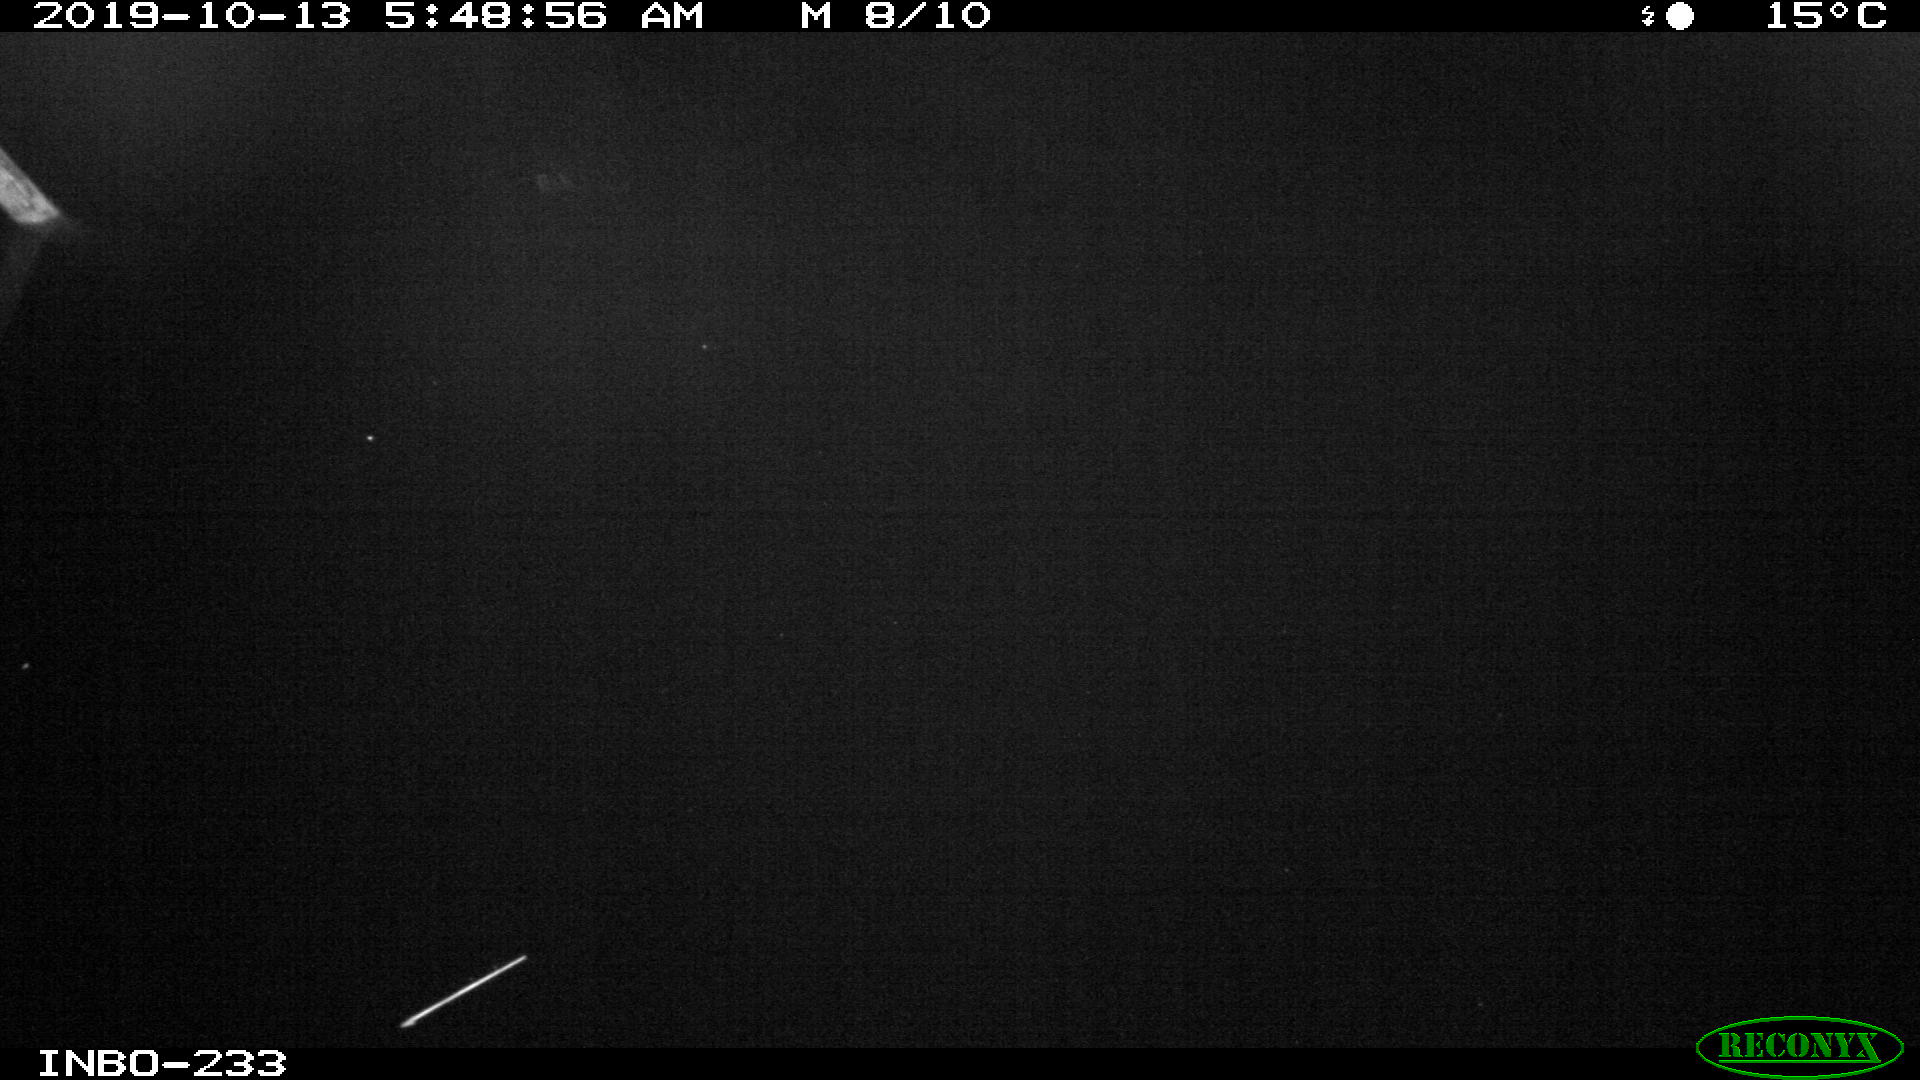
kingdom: Animalia
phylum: Chordata
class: Aves
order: Anseriformes
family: Anatidae
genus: Anas
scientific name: Anas platyrhynchos
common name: Mallard
